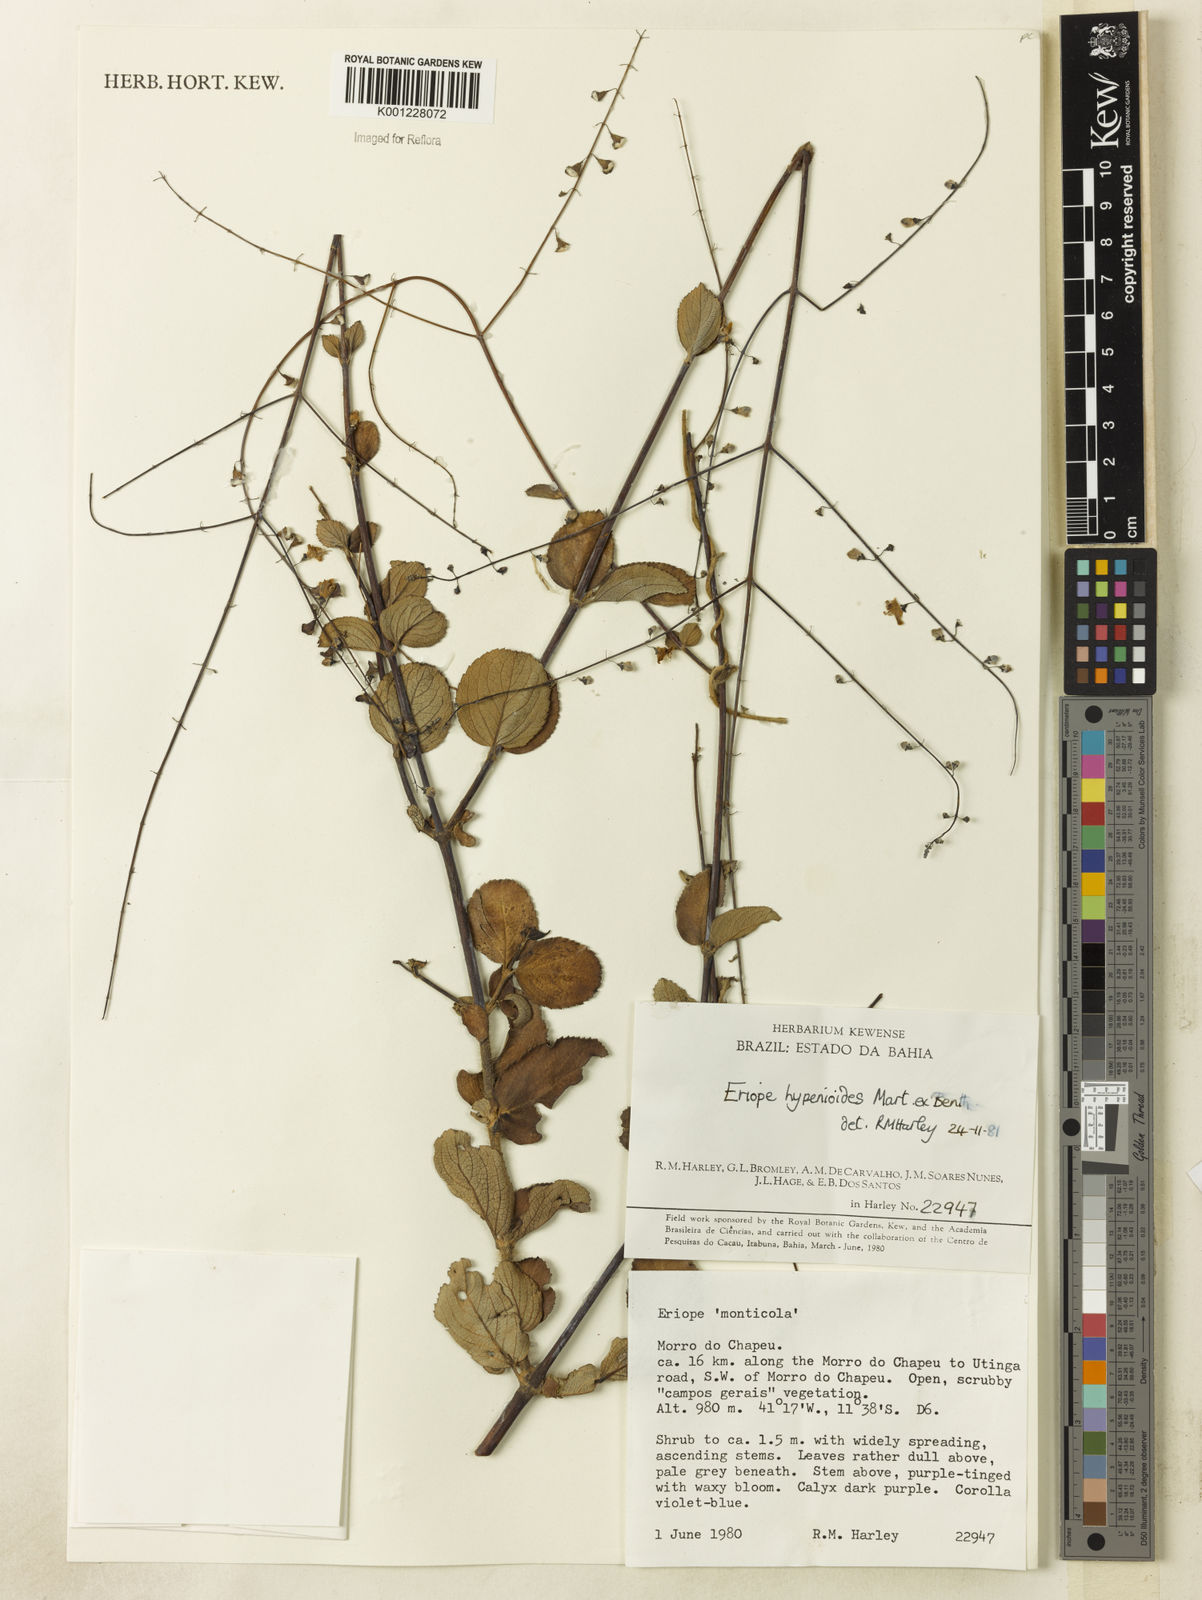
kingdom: Plantae
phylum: Tracheophyta
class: Magnoliopsida
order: Lamiales
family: Lamiaceae
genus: Eriope
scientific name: Eriope hypenioides
